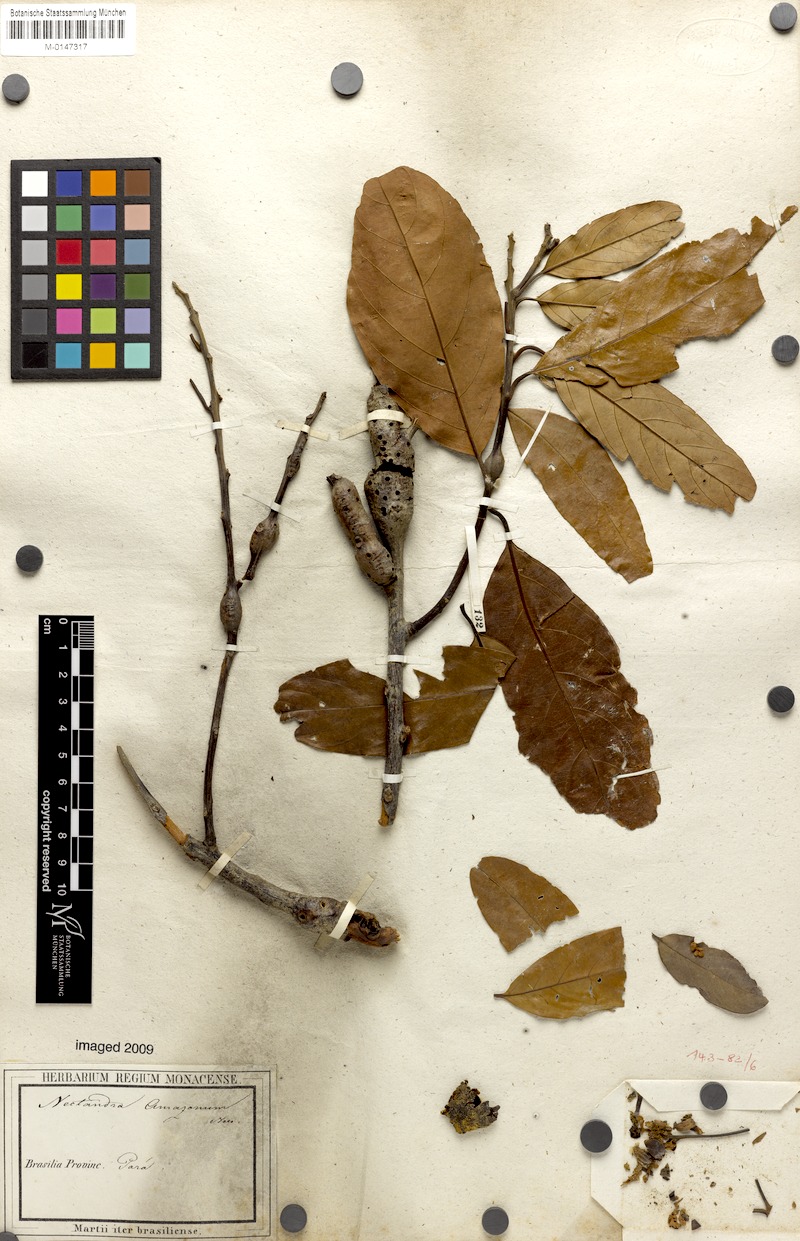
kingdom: Plantae
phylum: Tracheophyta
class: Magnoliopsida
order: Laurales
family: Lauraceae
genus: Nectandra
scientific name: Nectandra amazonum
